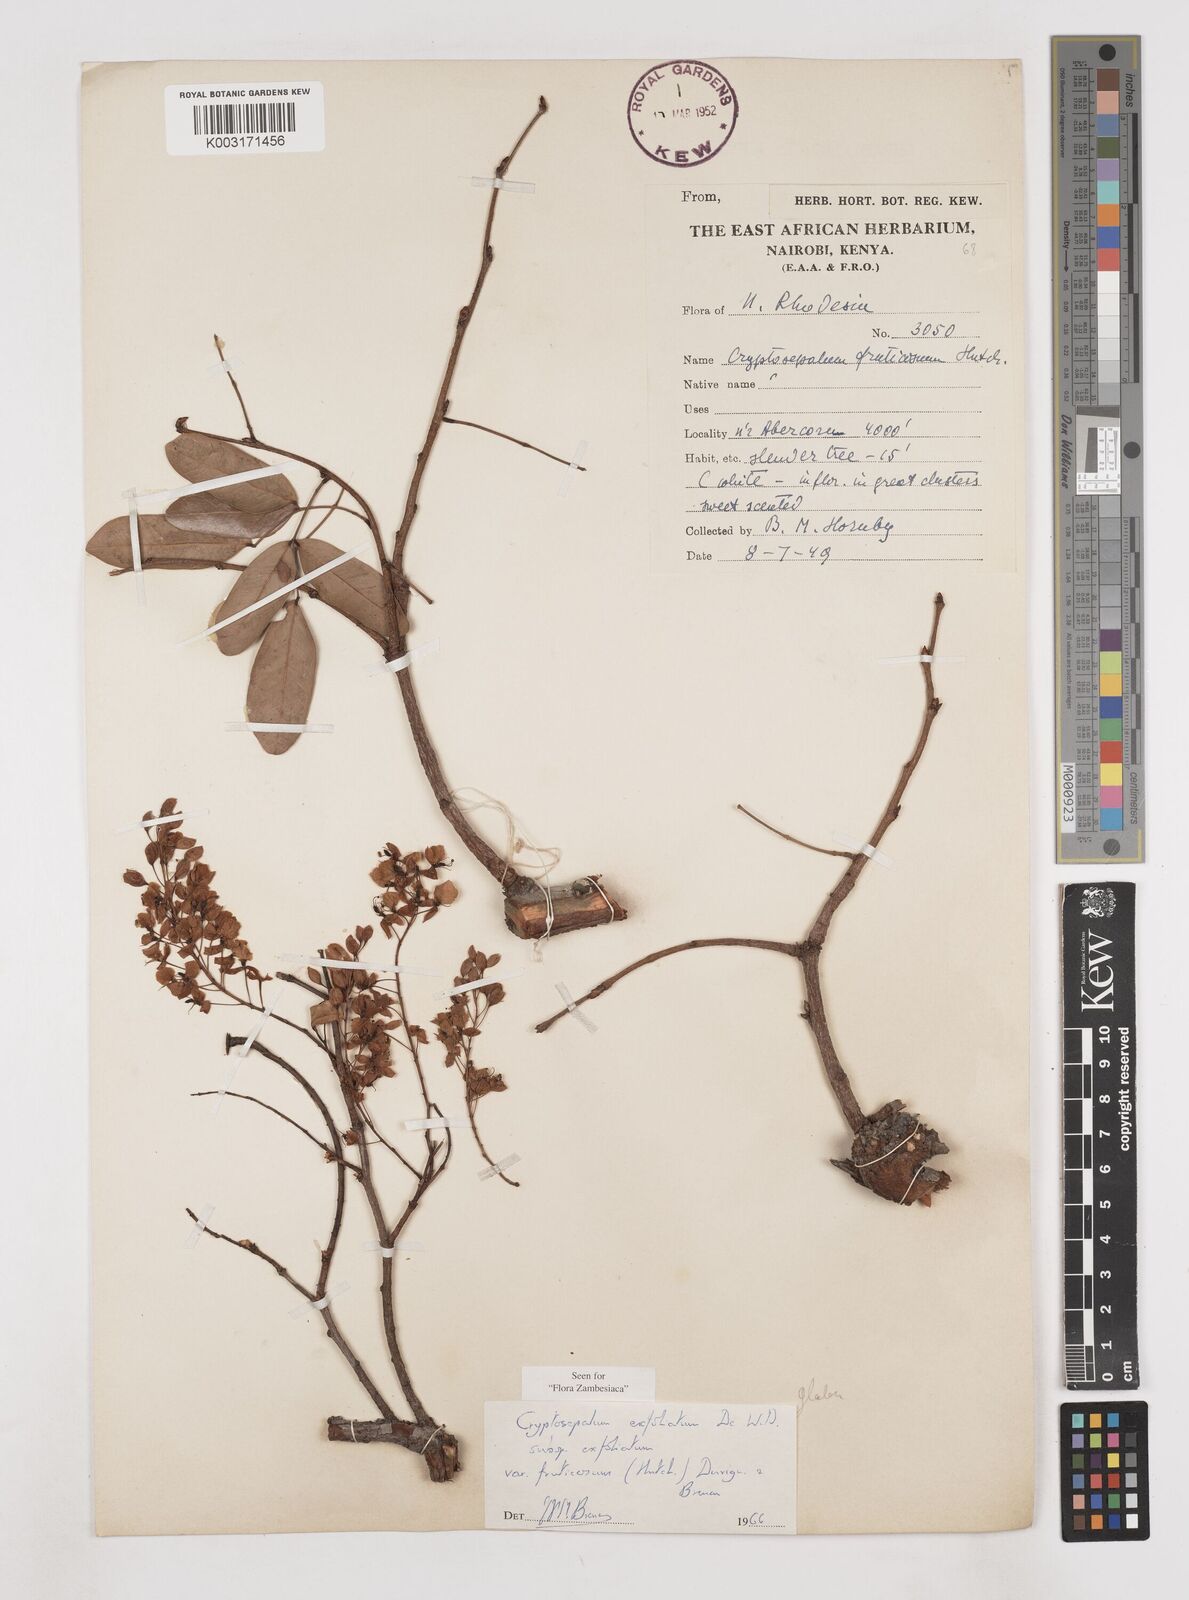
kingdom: Plantae
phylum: Tracheophyta
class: Magnoliopsida
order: Fabales
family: Fabaceae
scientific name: Fabaceae
